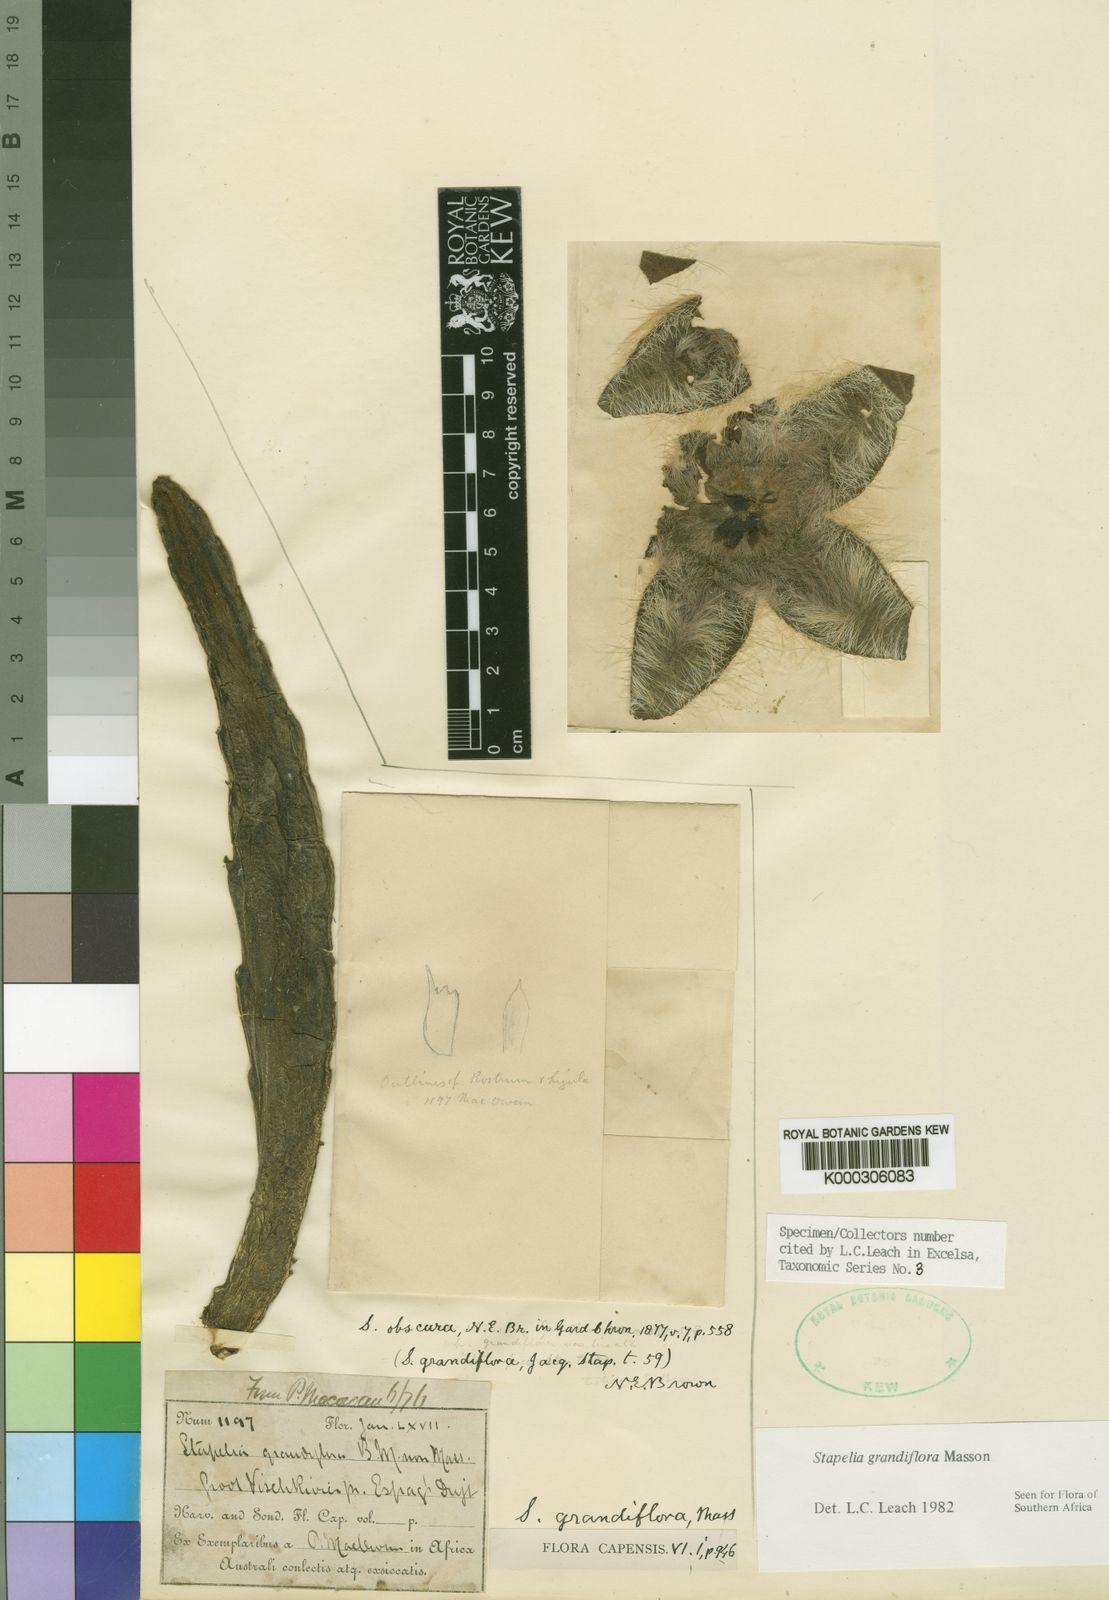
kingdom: Plantae
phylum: Tracheophyta
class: Magnoliopsida
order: Gentianales
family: Apocynaceae
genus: Ceropegia
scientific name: Ceropegia grandiflora
